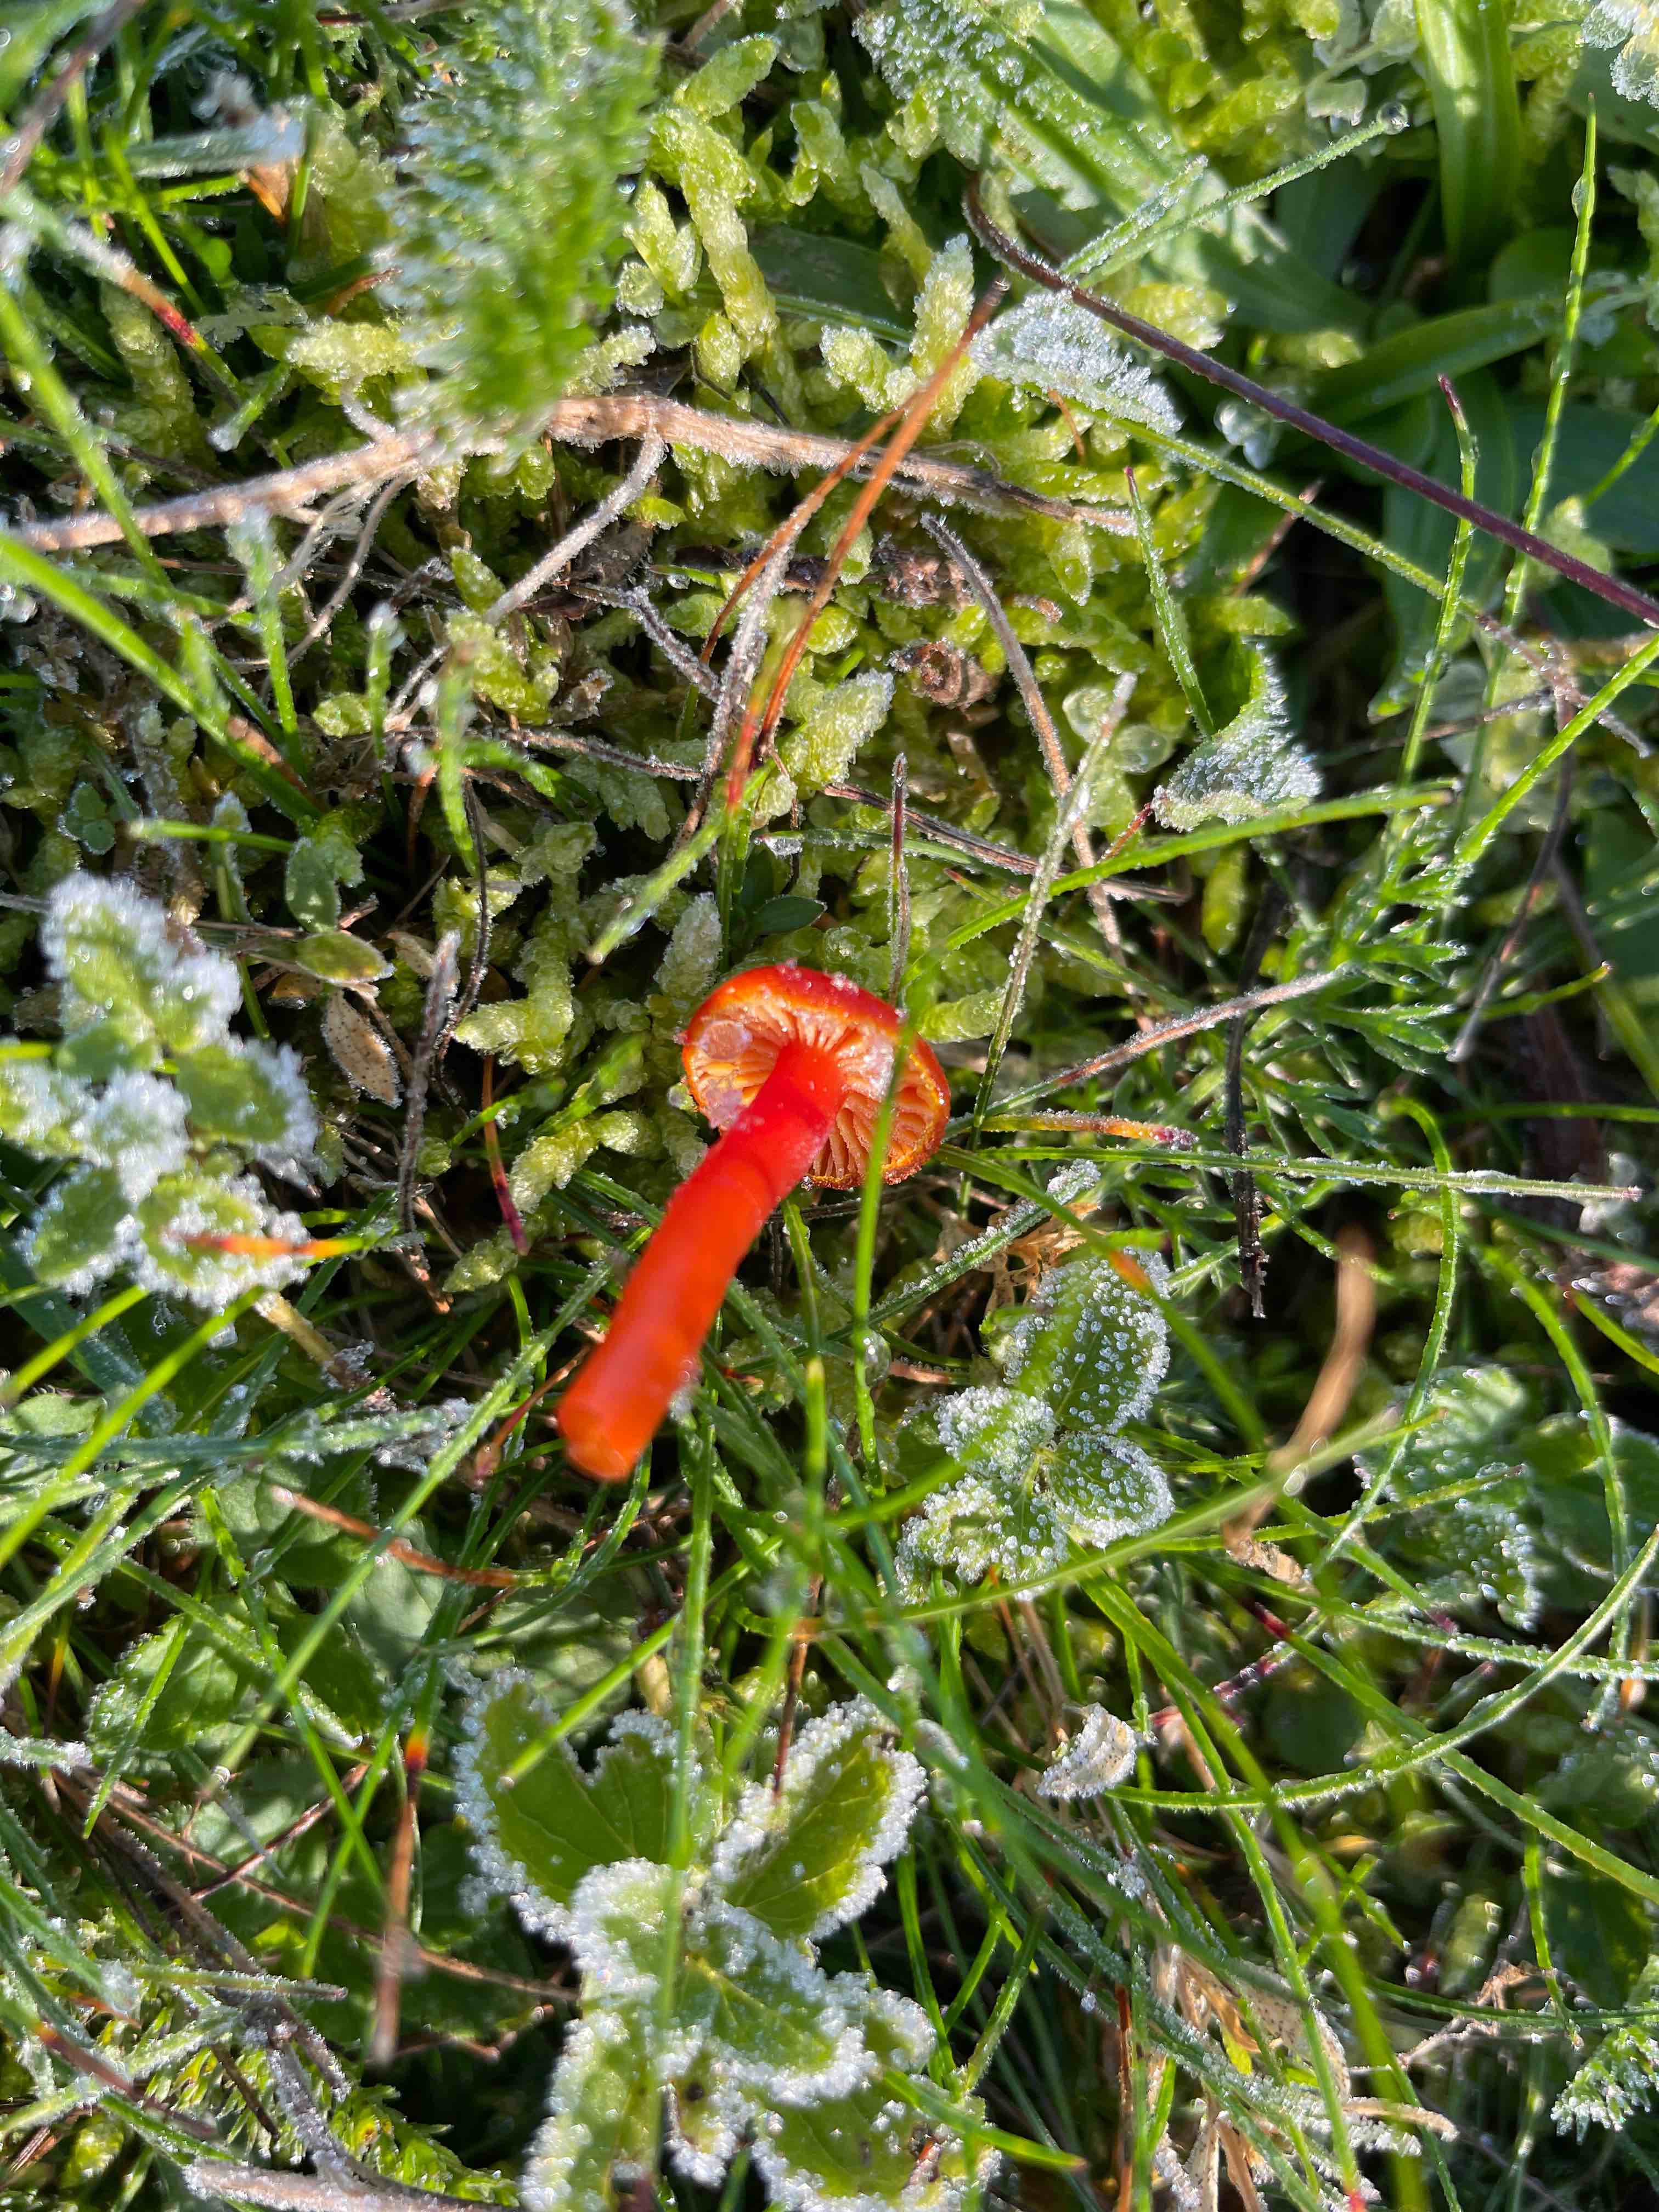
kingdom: Fungi
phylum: Basidiomycota
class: Agaricomycetes
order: Agaricales
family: Hygrophoraceae
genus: Hygrocybe
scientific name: Hygrocybe
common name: vokshat
